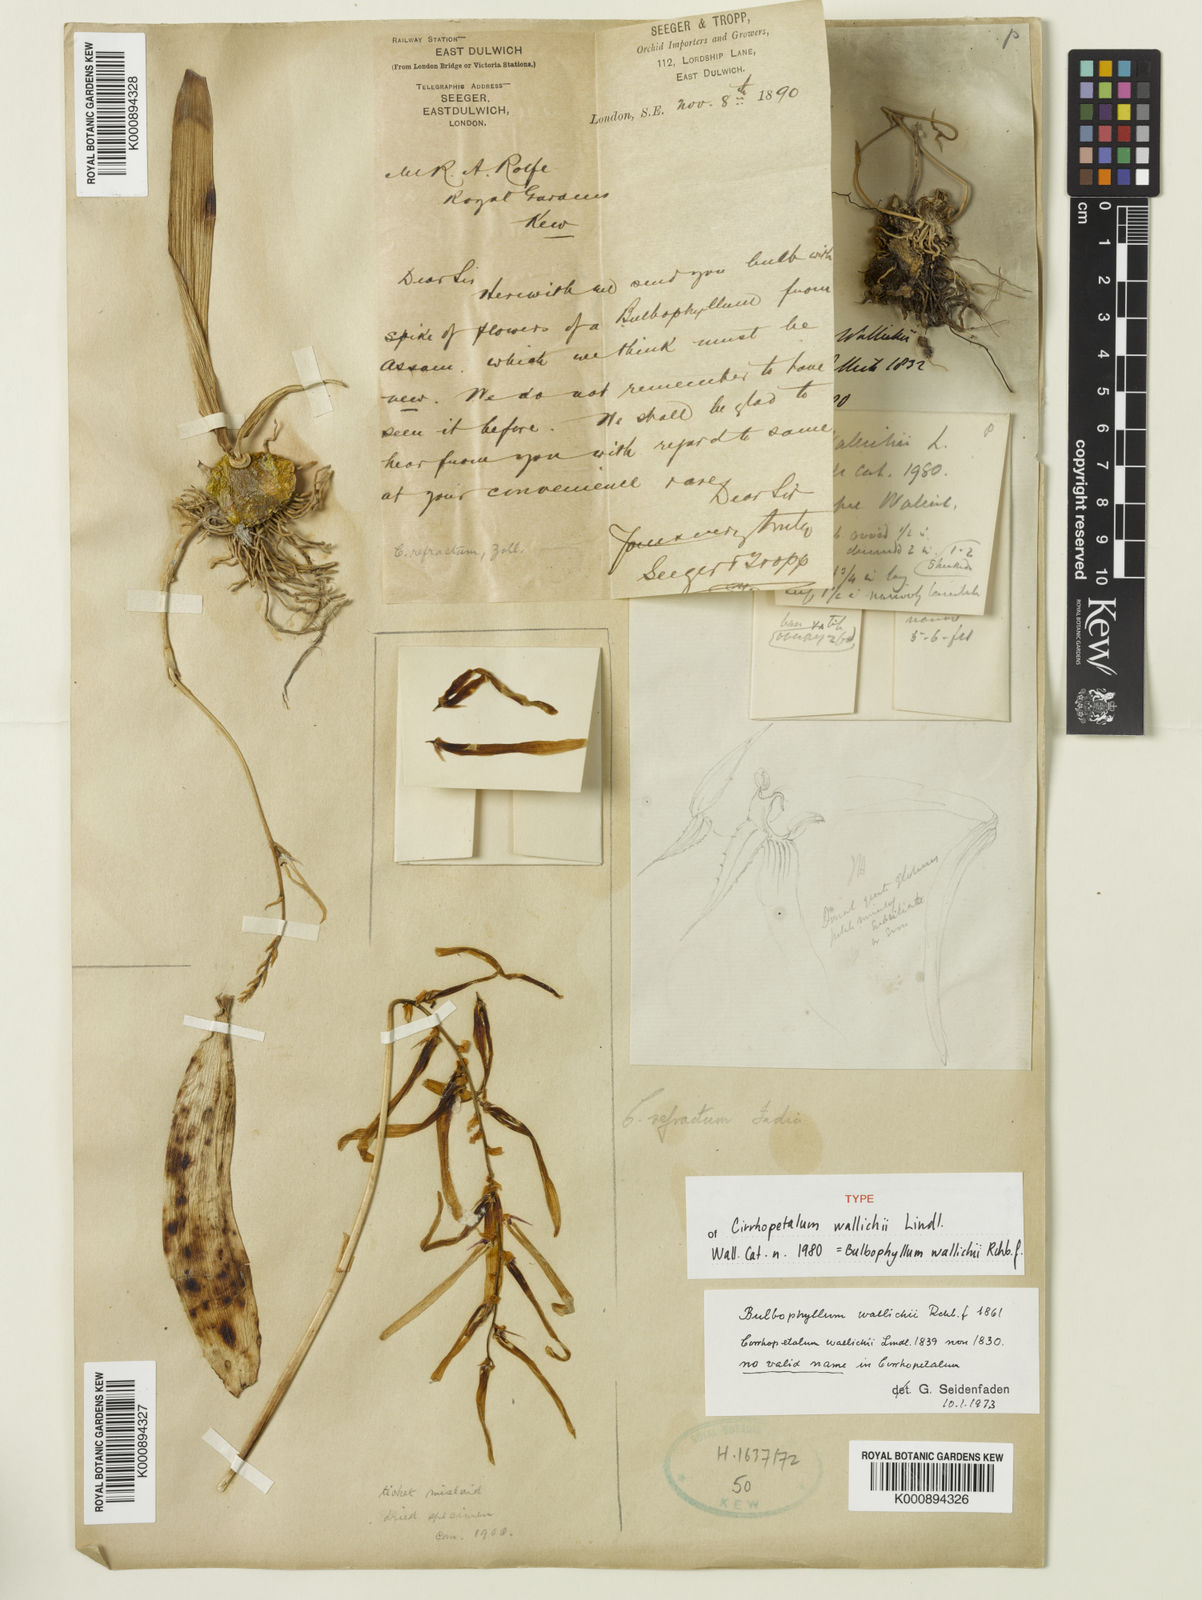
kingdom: Plantae
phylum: Tracheophyta
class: Liliopsida
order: Asparagales
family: Orchidaceae
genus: Bulbophyllum
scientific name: Bulbophyllum wallichii
